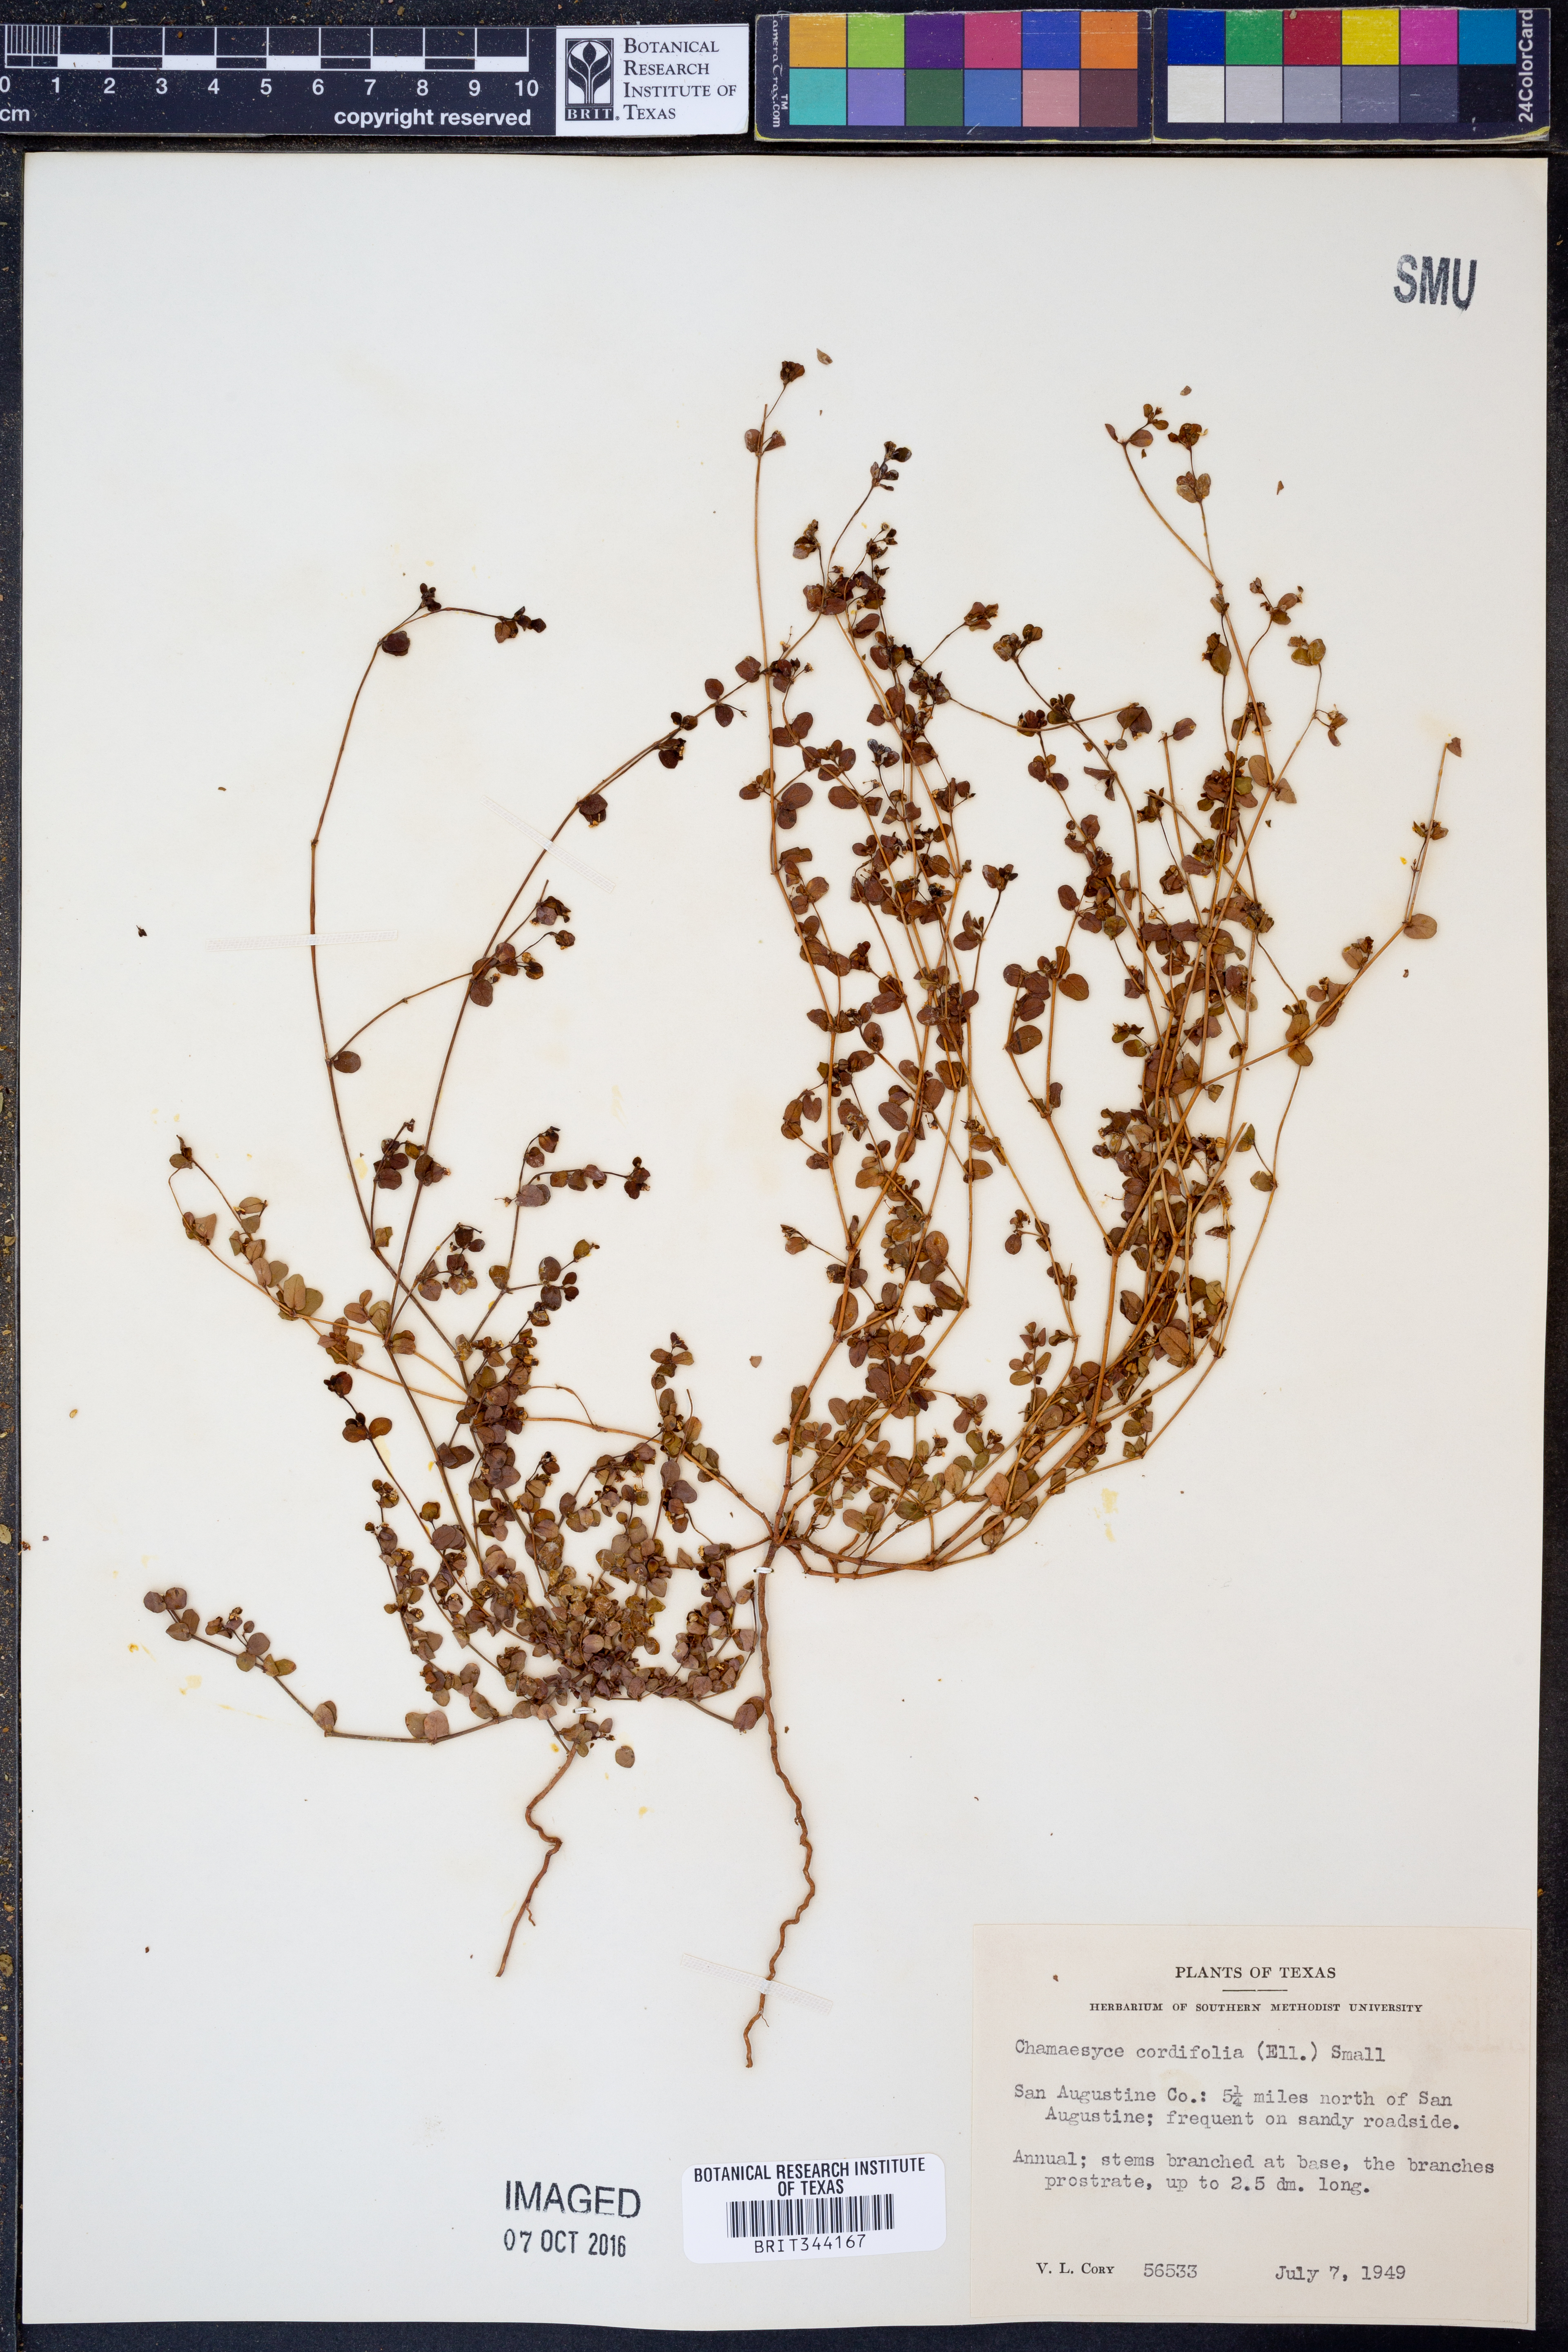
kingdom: Plantae
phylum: Tracheophyta
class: Magnoliopsida
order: Malpighiales
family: Euphorbiaceae
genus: Euphorbia
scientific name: Euphorbia cordifolia
